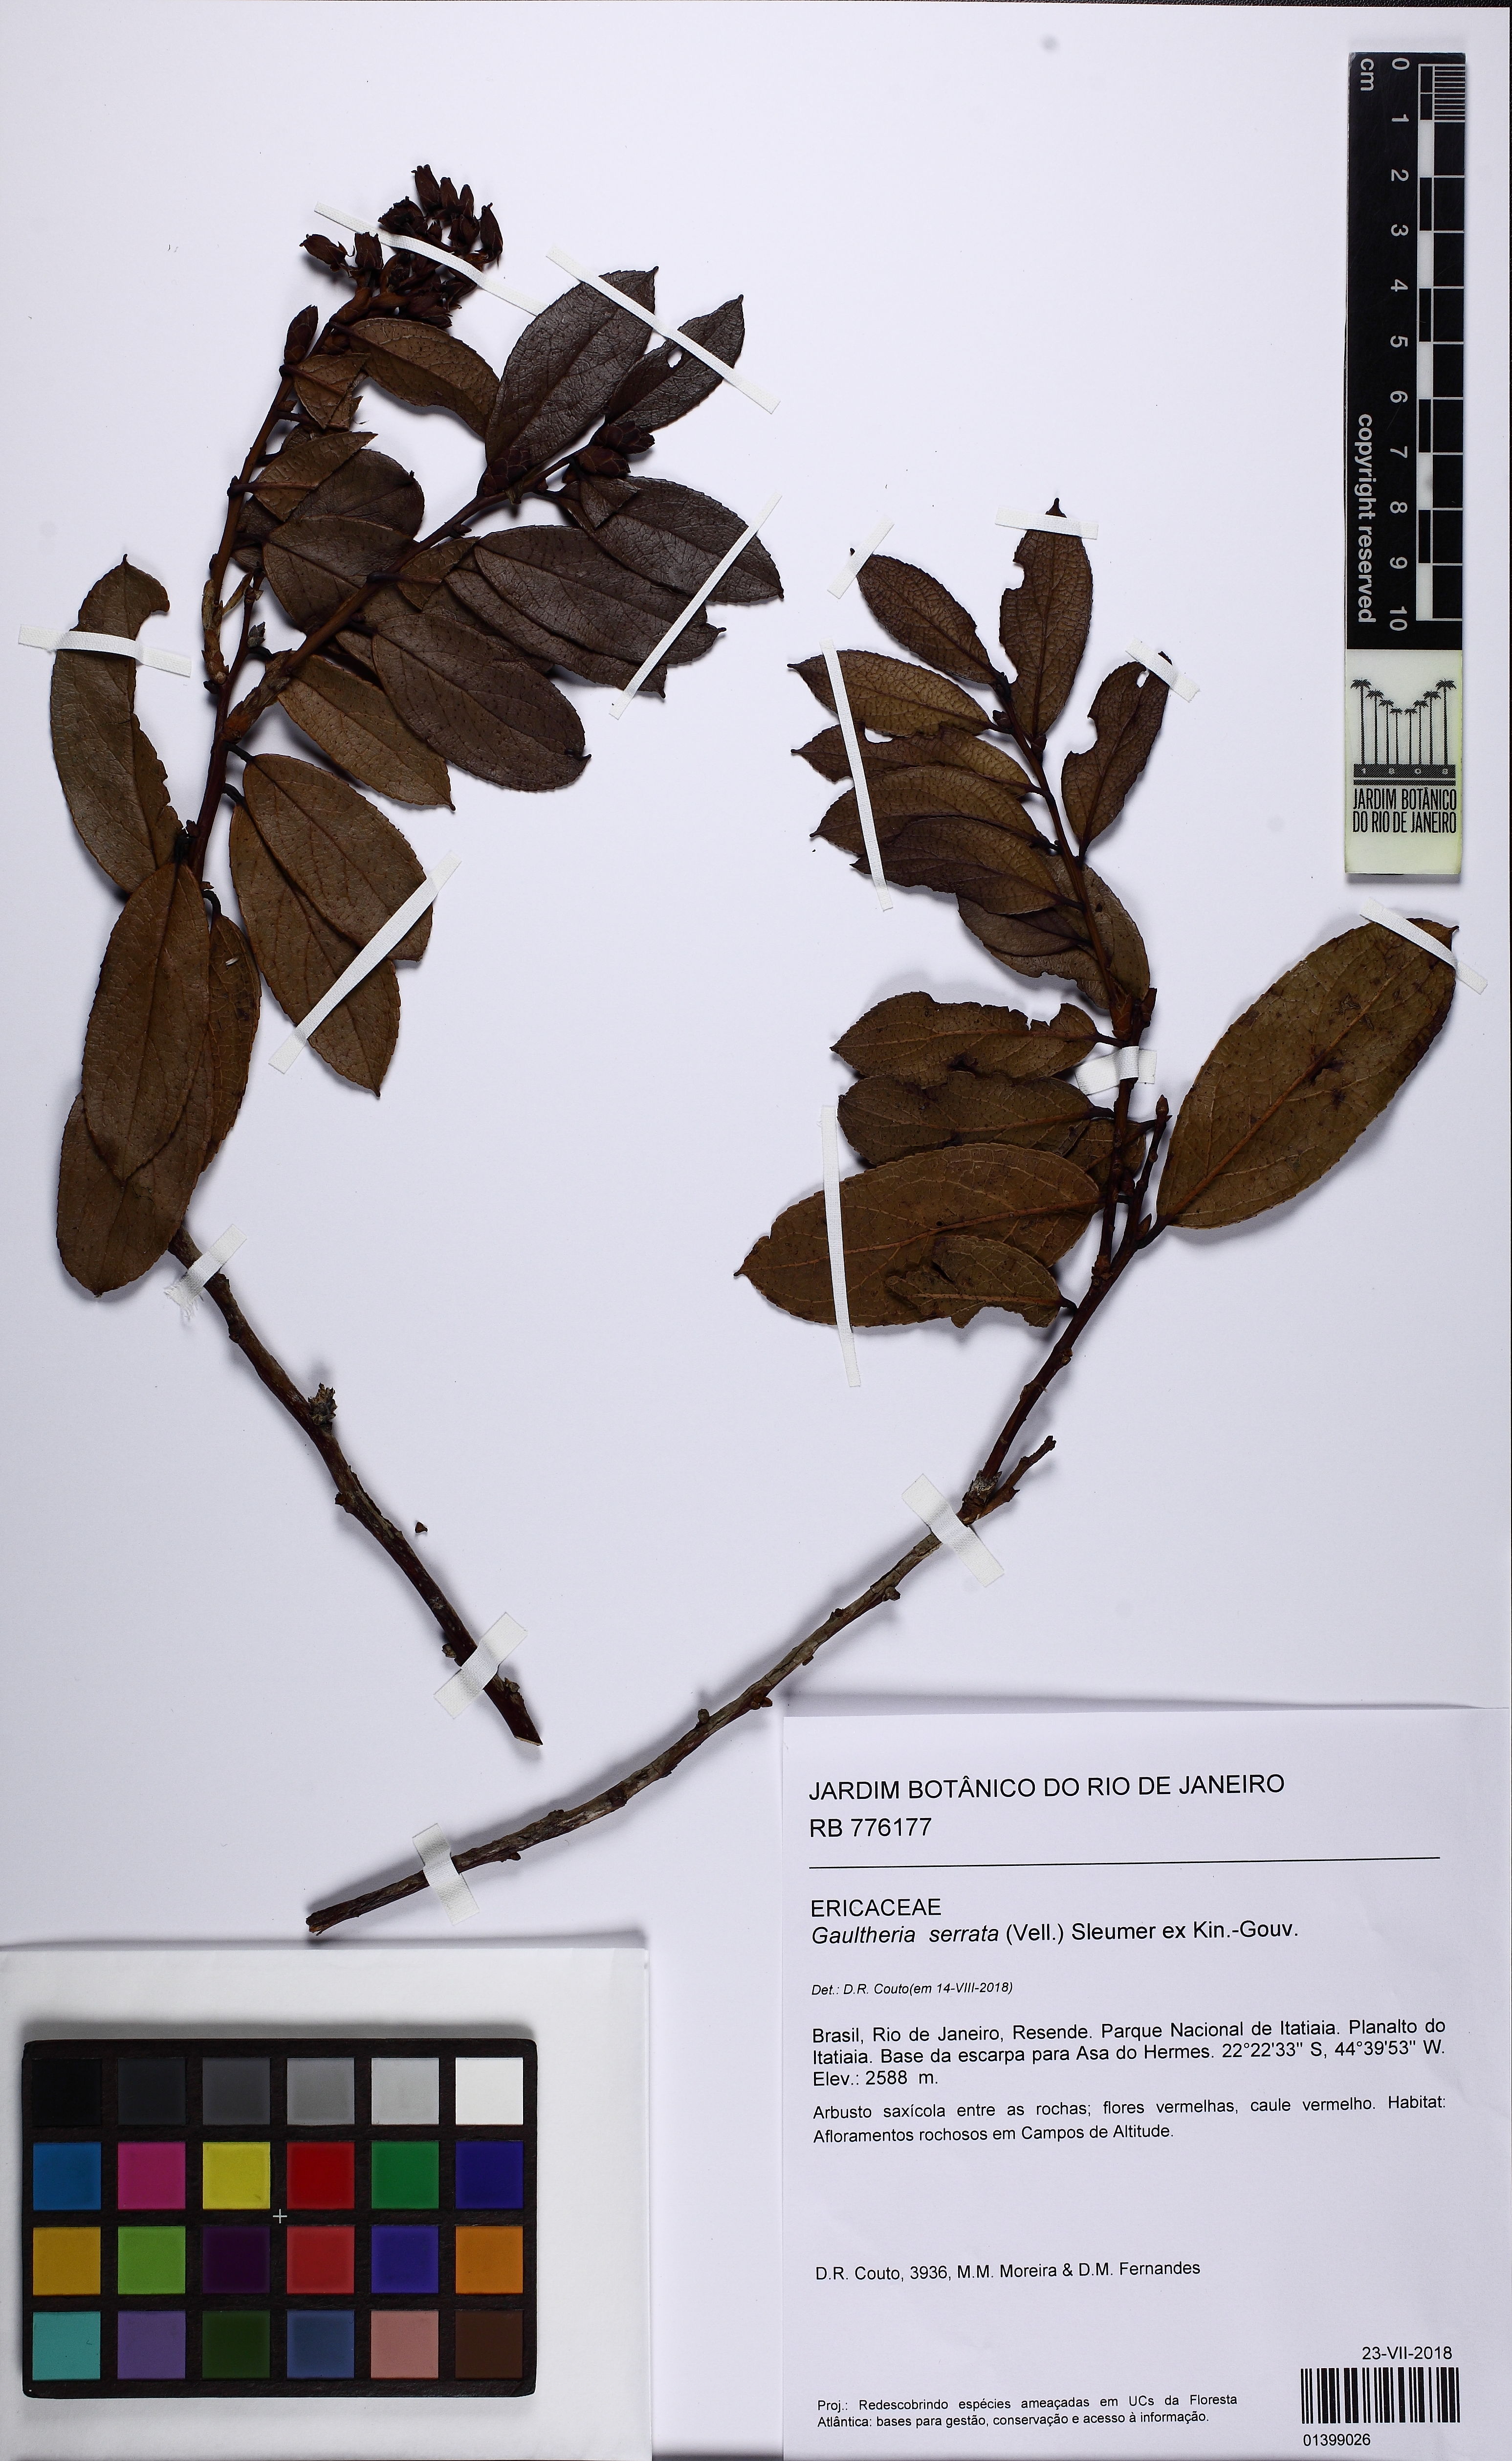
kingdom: Plantae
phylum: Tracheophyta
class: Magnoliopsida
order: Ericales
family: Ericaceae
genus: Gaultheria
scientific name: Gaultheria serrata
